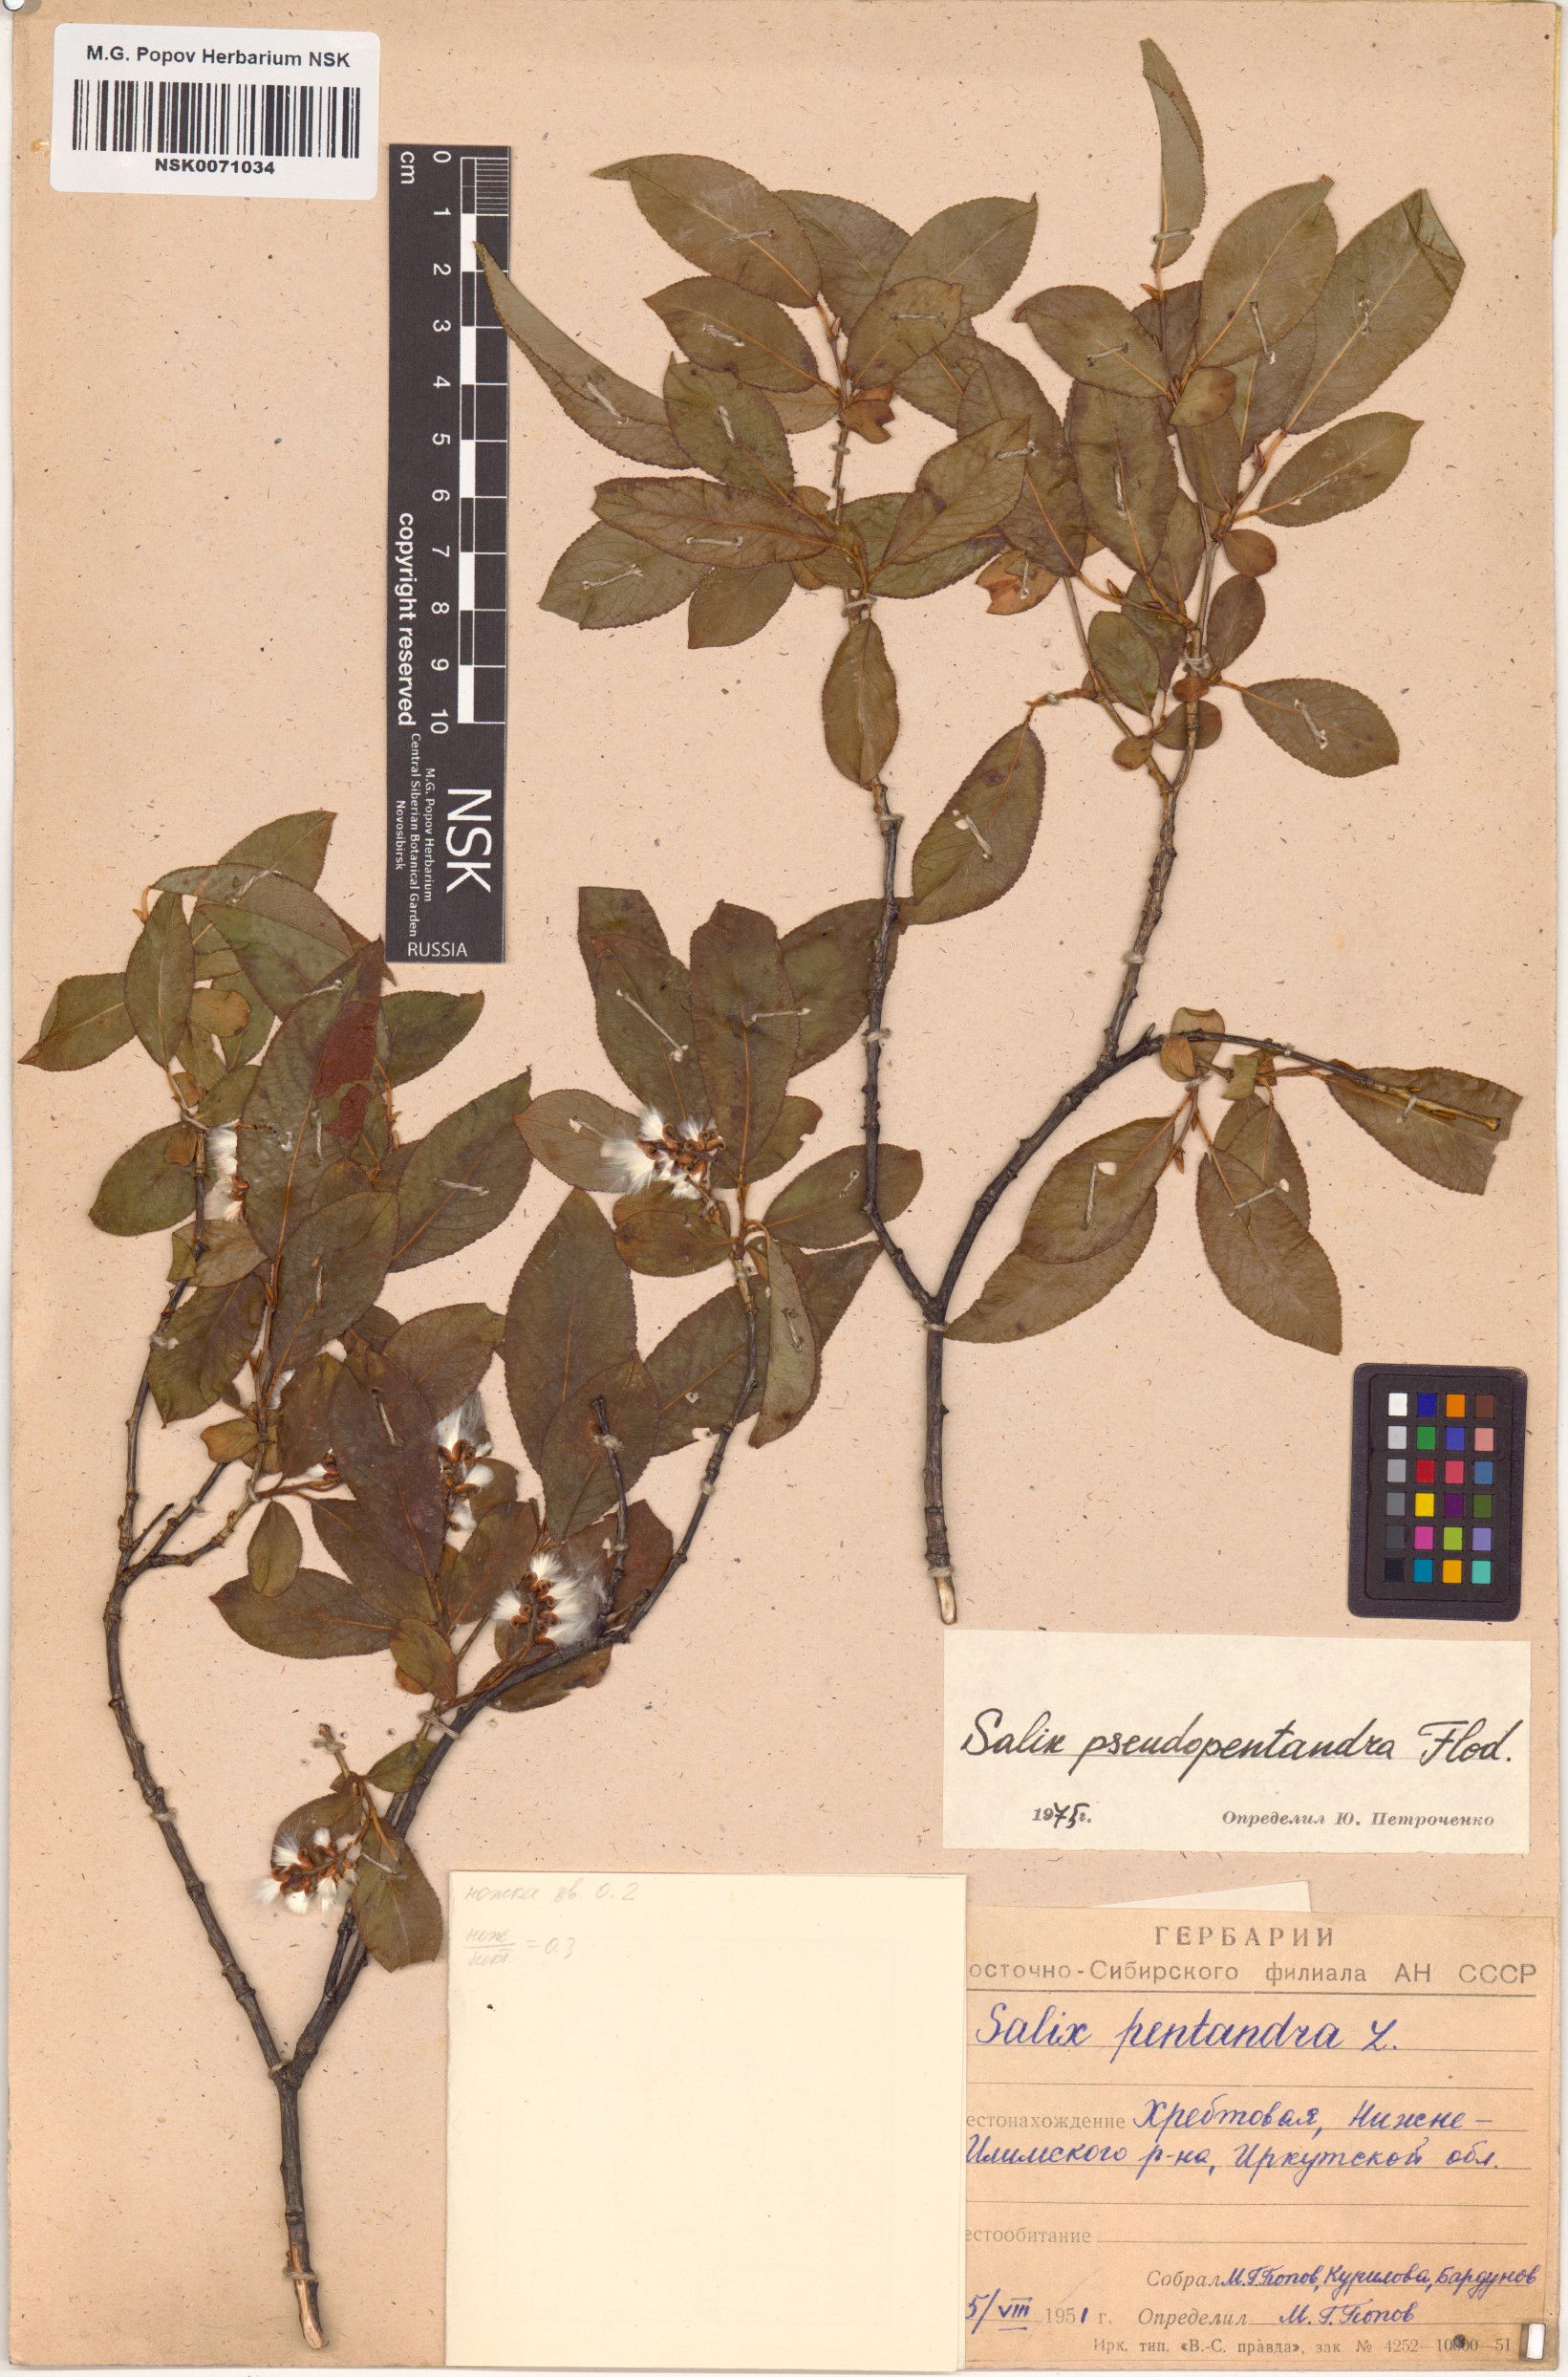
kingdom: Plantae
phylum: Tracheophyta
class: Magnoliopsida
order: Malpighiales
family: Salicaceae
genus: Salix
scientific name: Salix pseudopentandra
